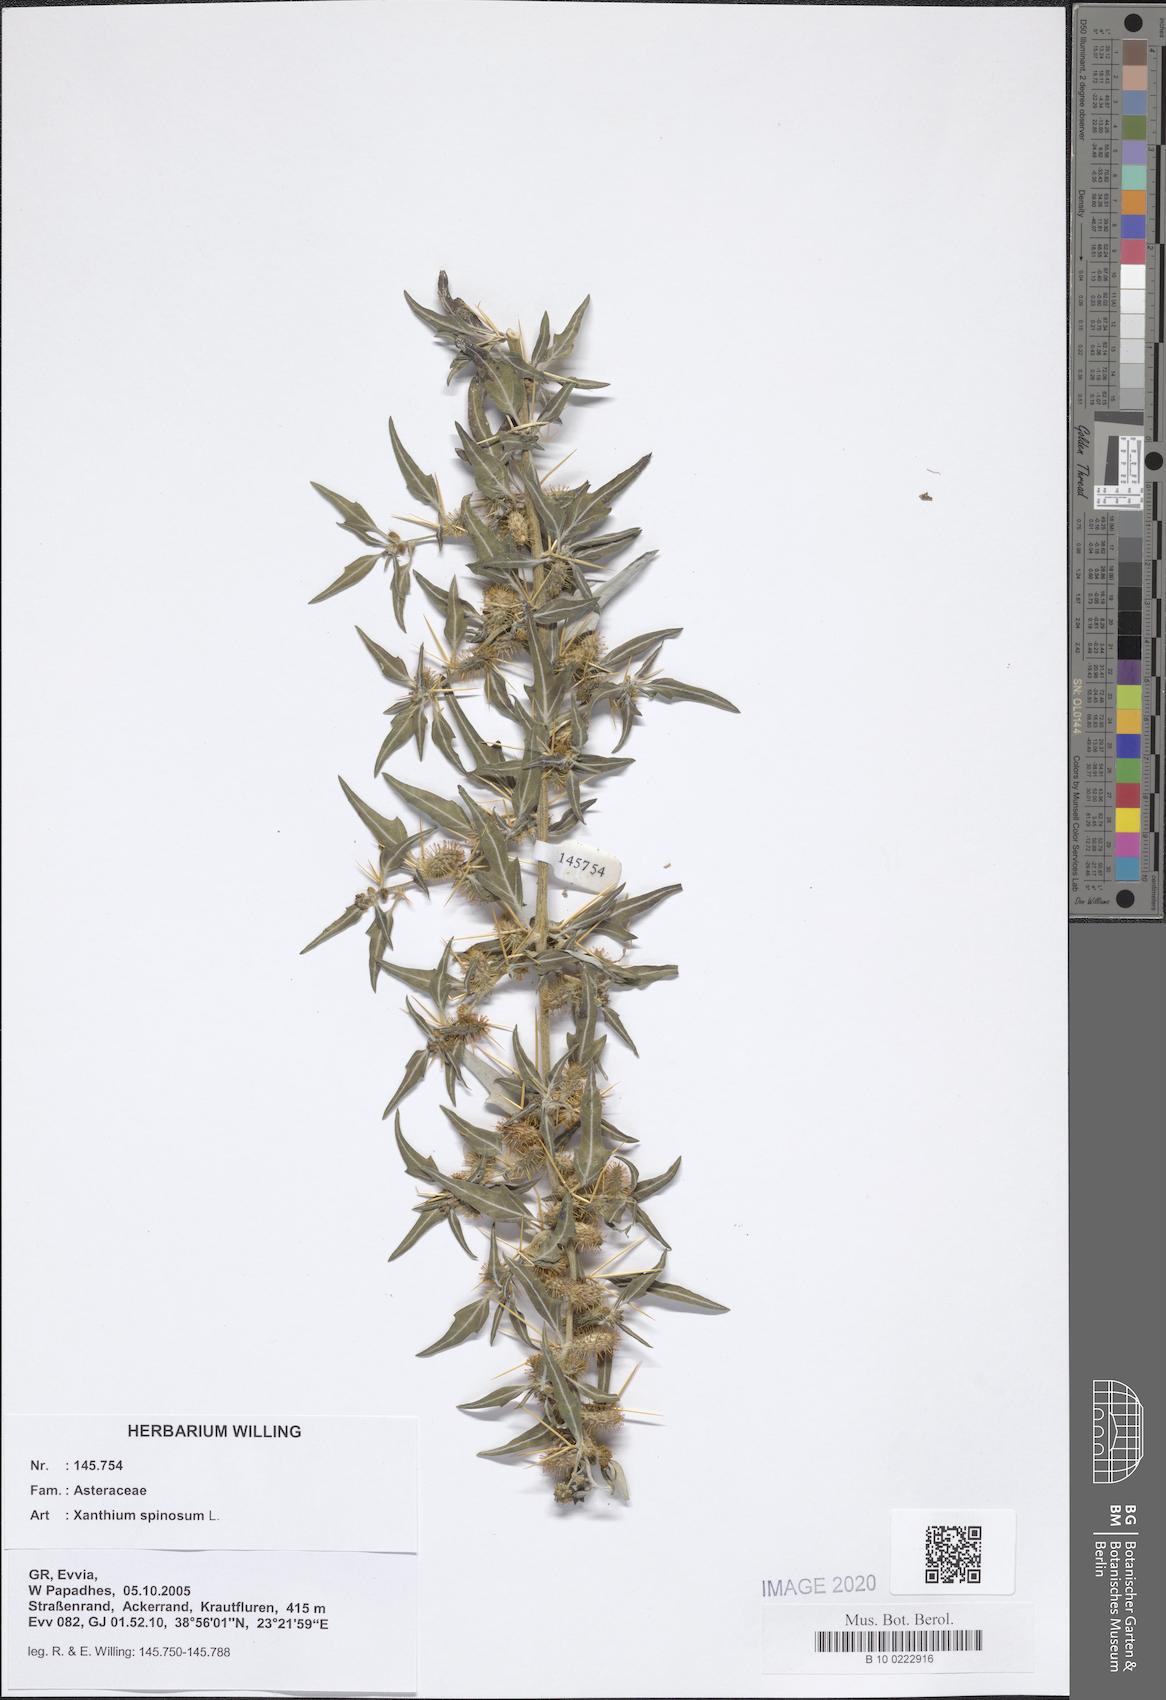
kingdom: Plantae
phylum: Tracheophyta
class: Magnoliopsida
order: Asterales
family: Asteraceae
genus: Xanthium
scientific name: Xanthium spinosum
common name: Spiny cocklebur
